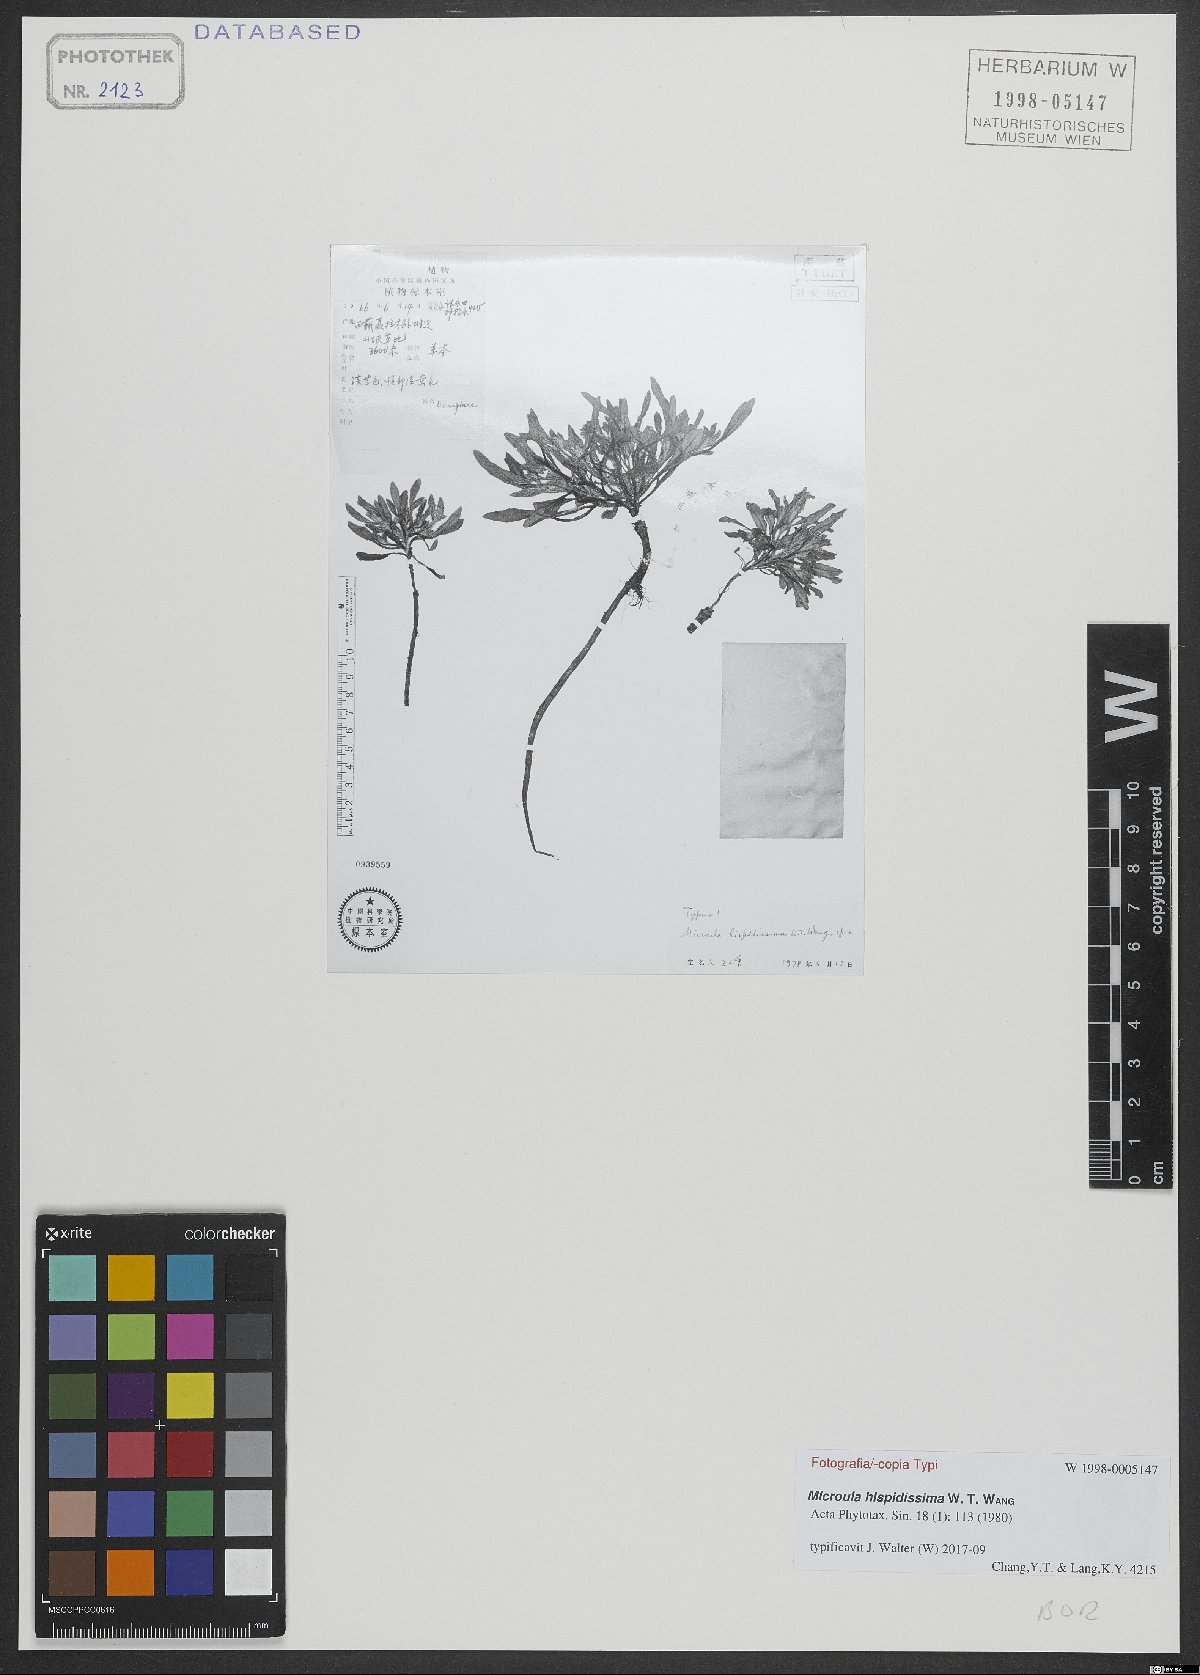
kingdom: Plantae
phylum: Tracheophyta
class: Magnoliopsida
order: Boraginales
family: Boraginaceae
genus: Microula
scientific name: Microula hispidissima
